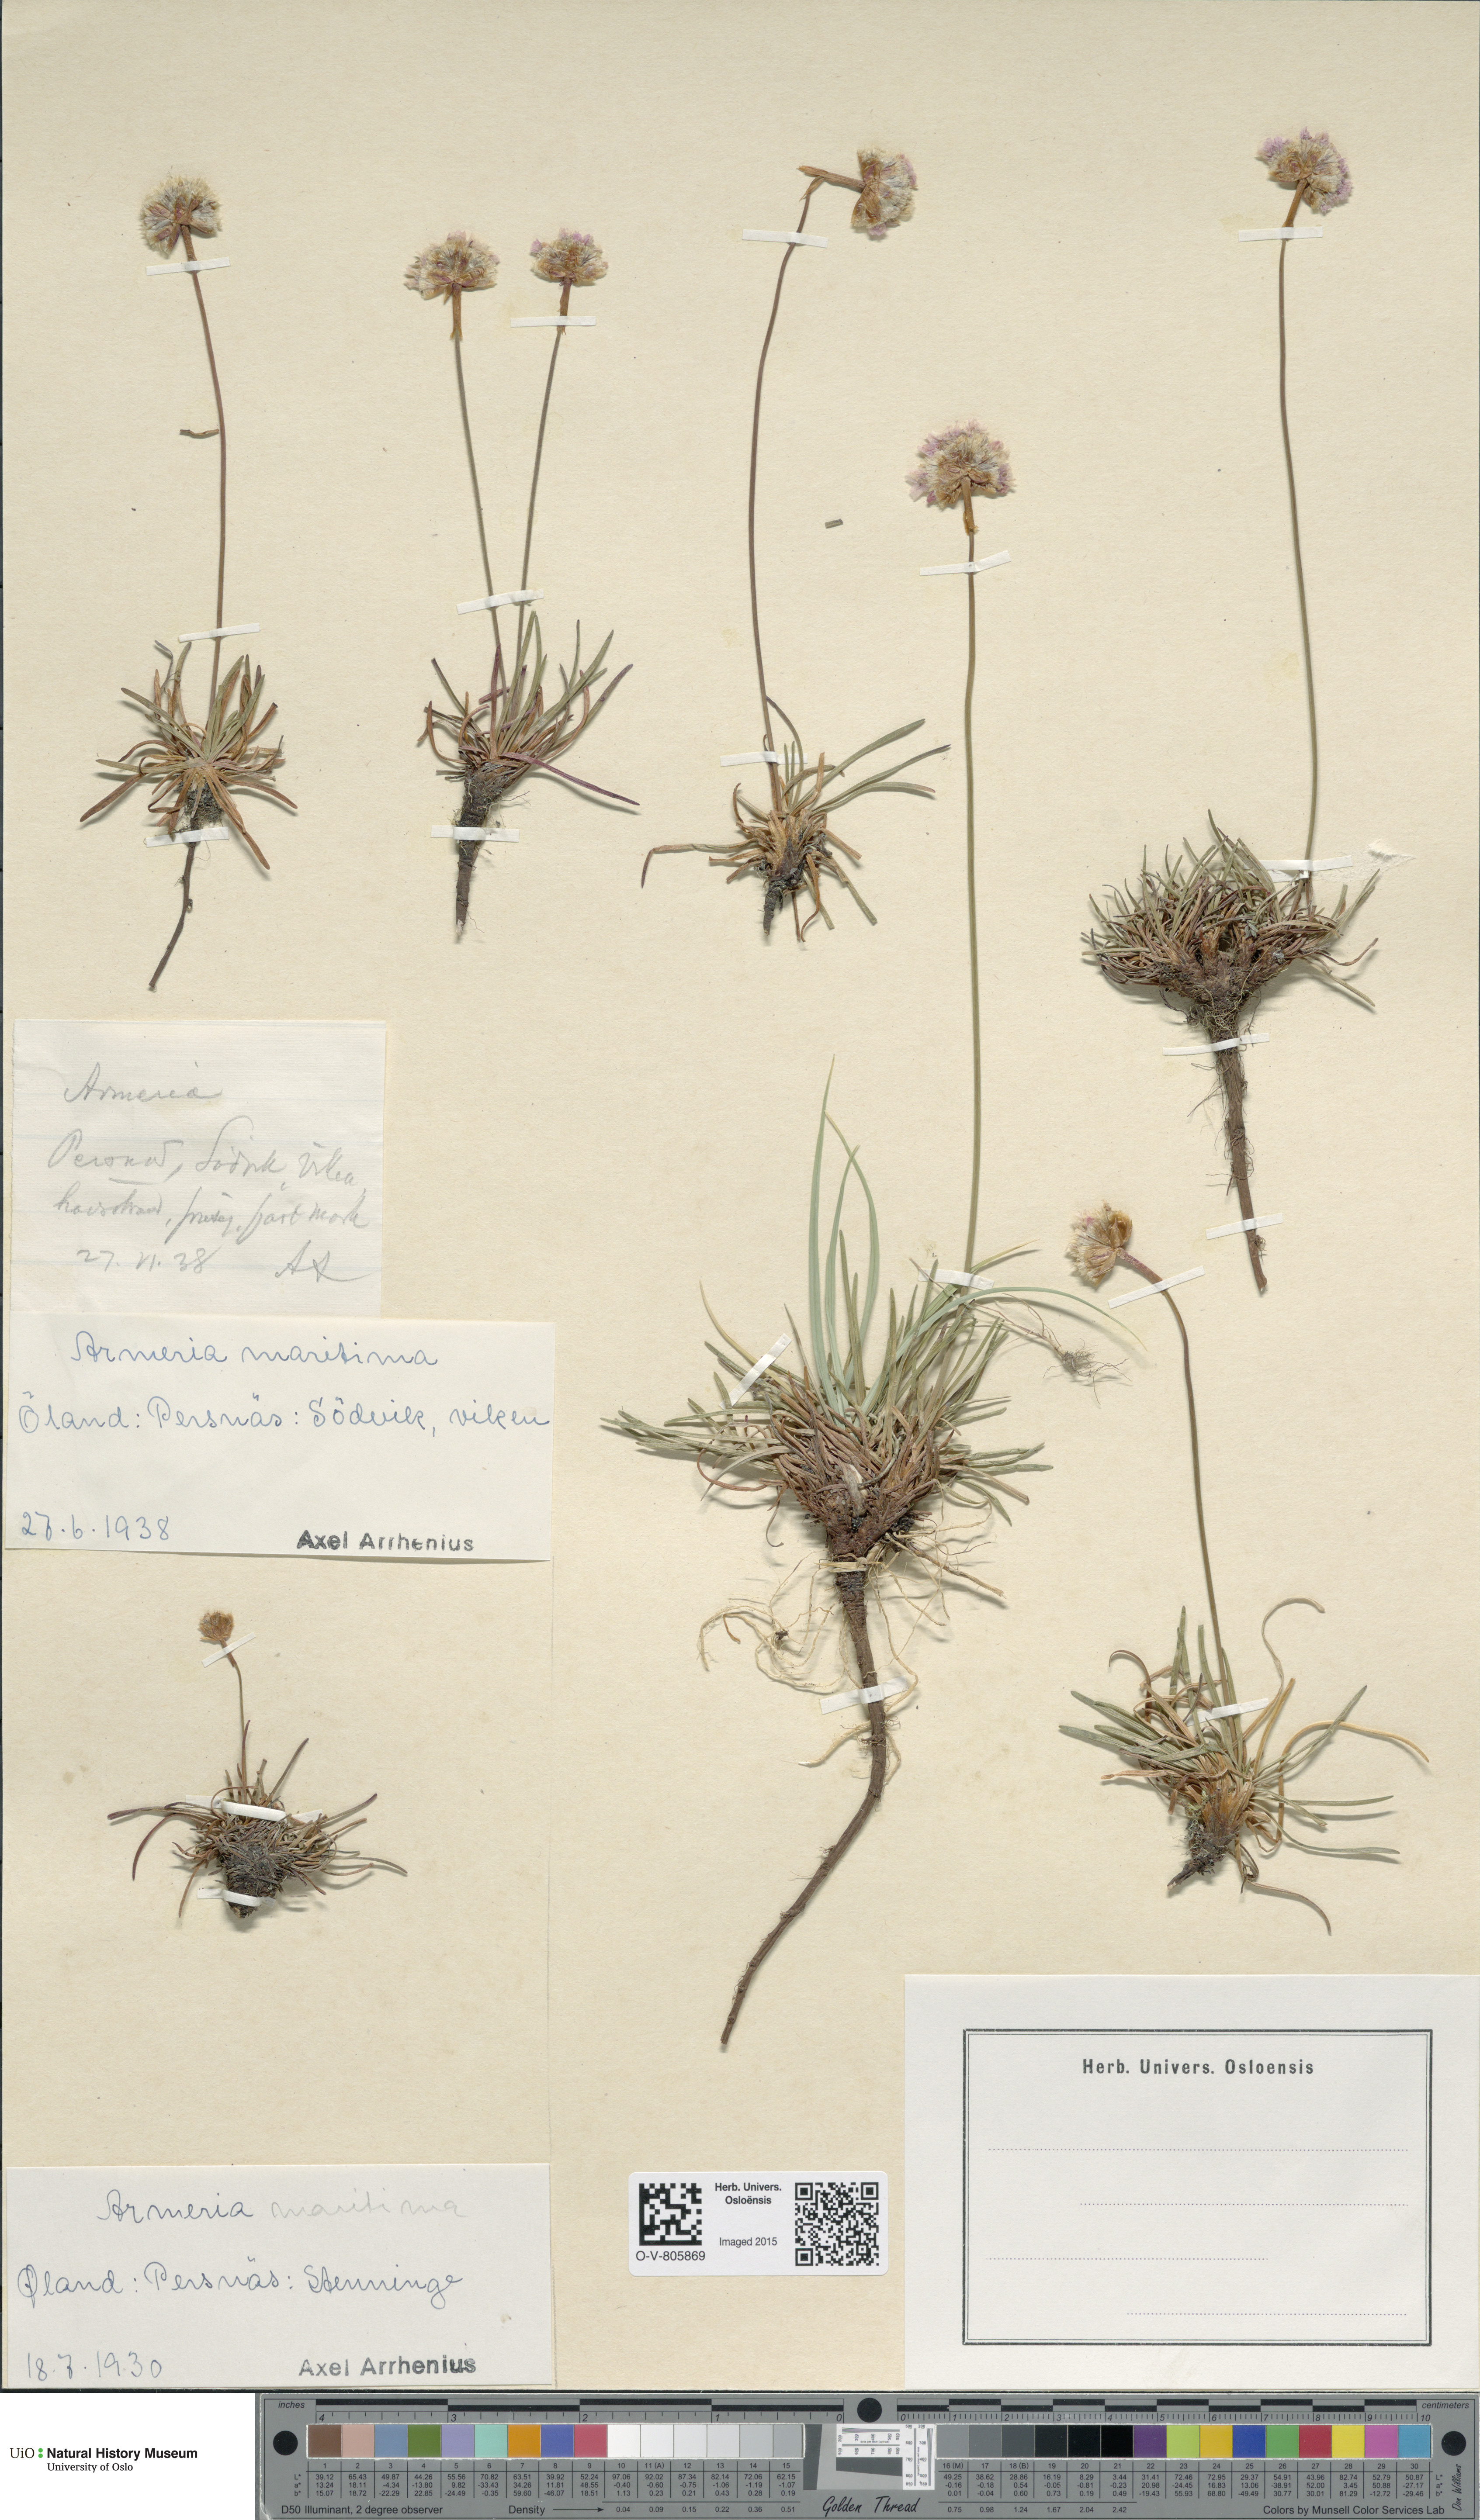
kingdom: Plantae
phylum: Tracheophyta
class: Magnoliopsida
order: Caryophyllales
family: Plumbaginaceae
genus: Armeria
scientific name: Armeria maritima
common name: Thrift
